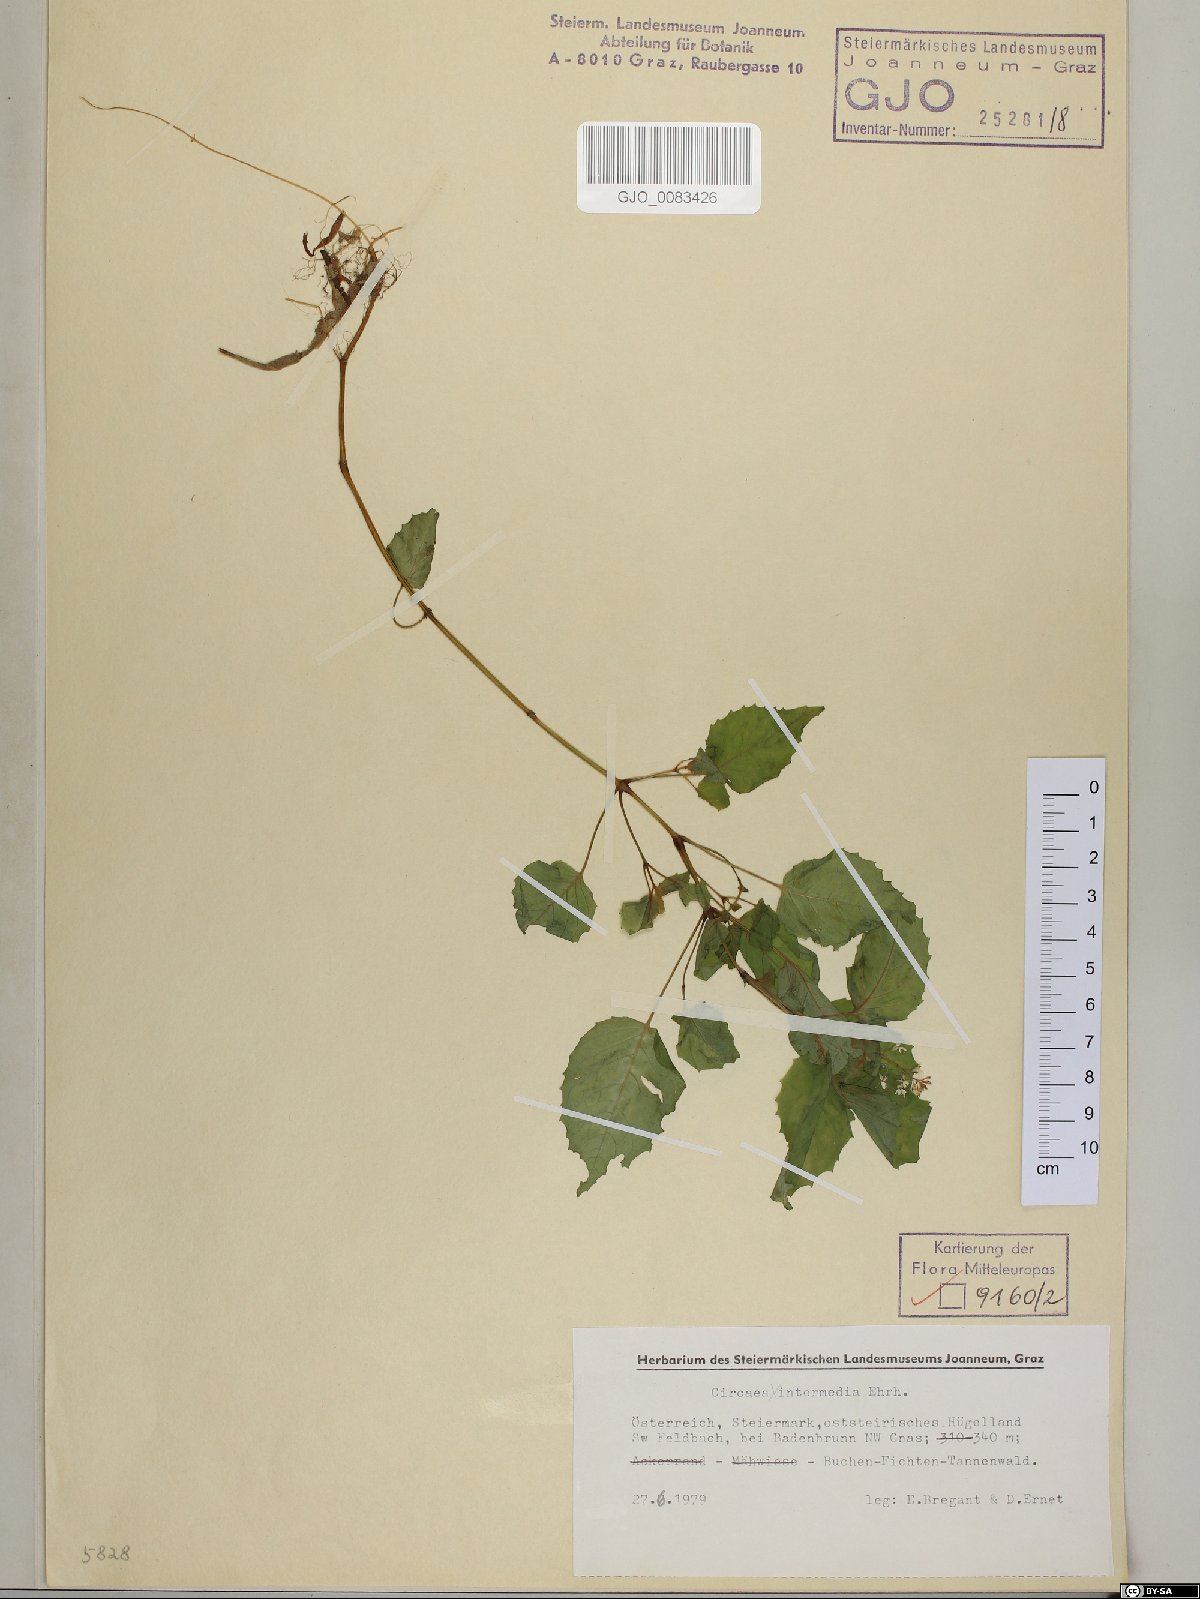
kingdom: Plantae
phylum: Tracheophyta
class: Magnoliopsida
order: Myrtales
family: Onagraceae
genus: Circaea
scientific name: Circaea intermedia
